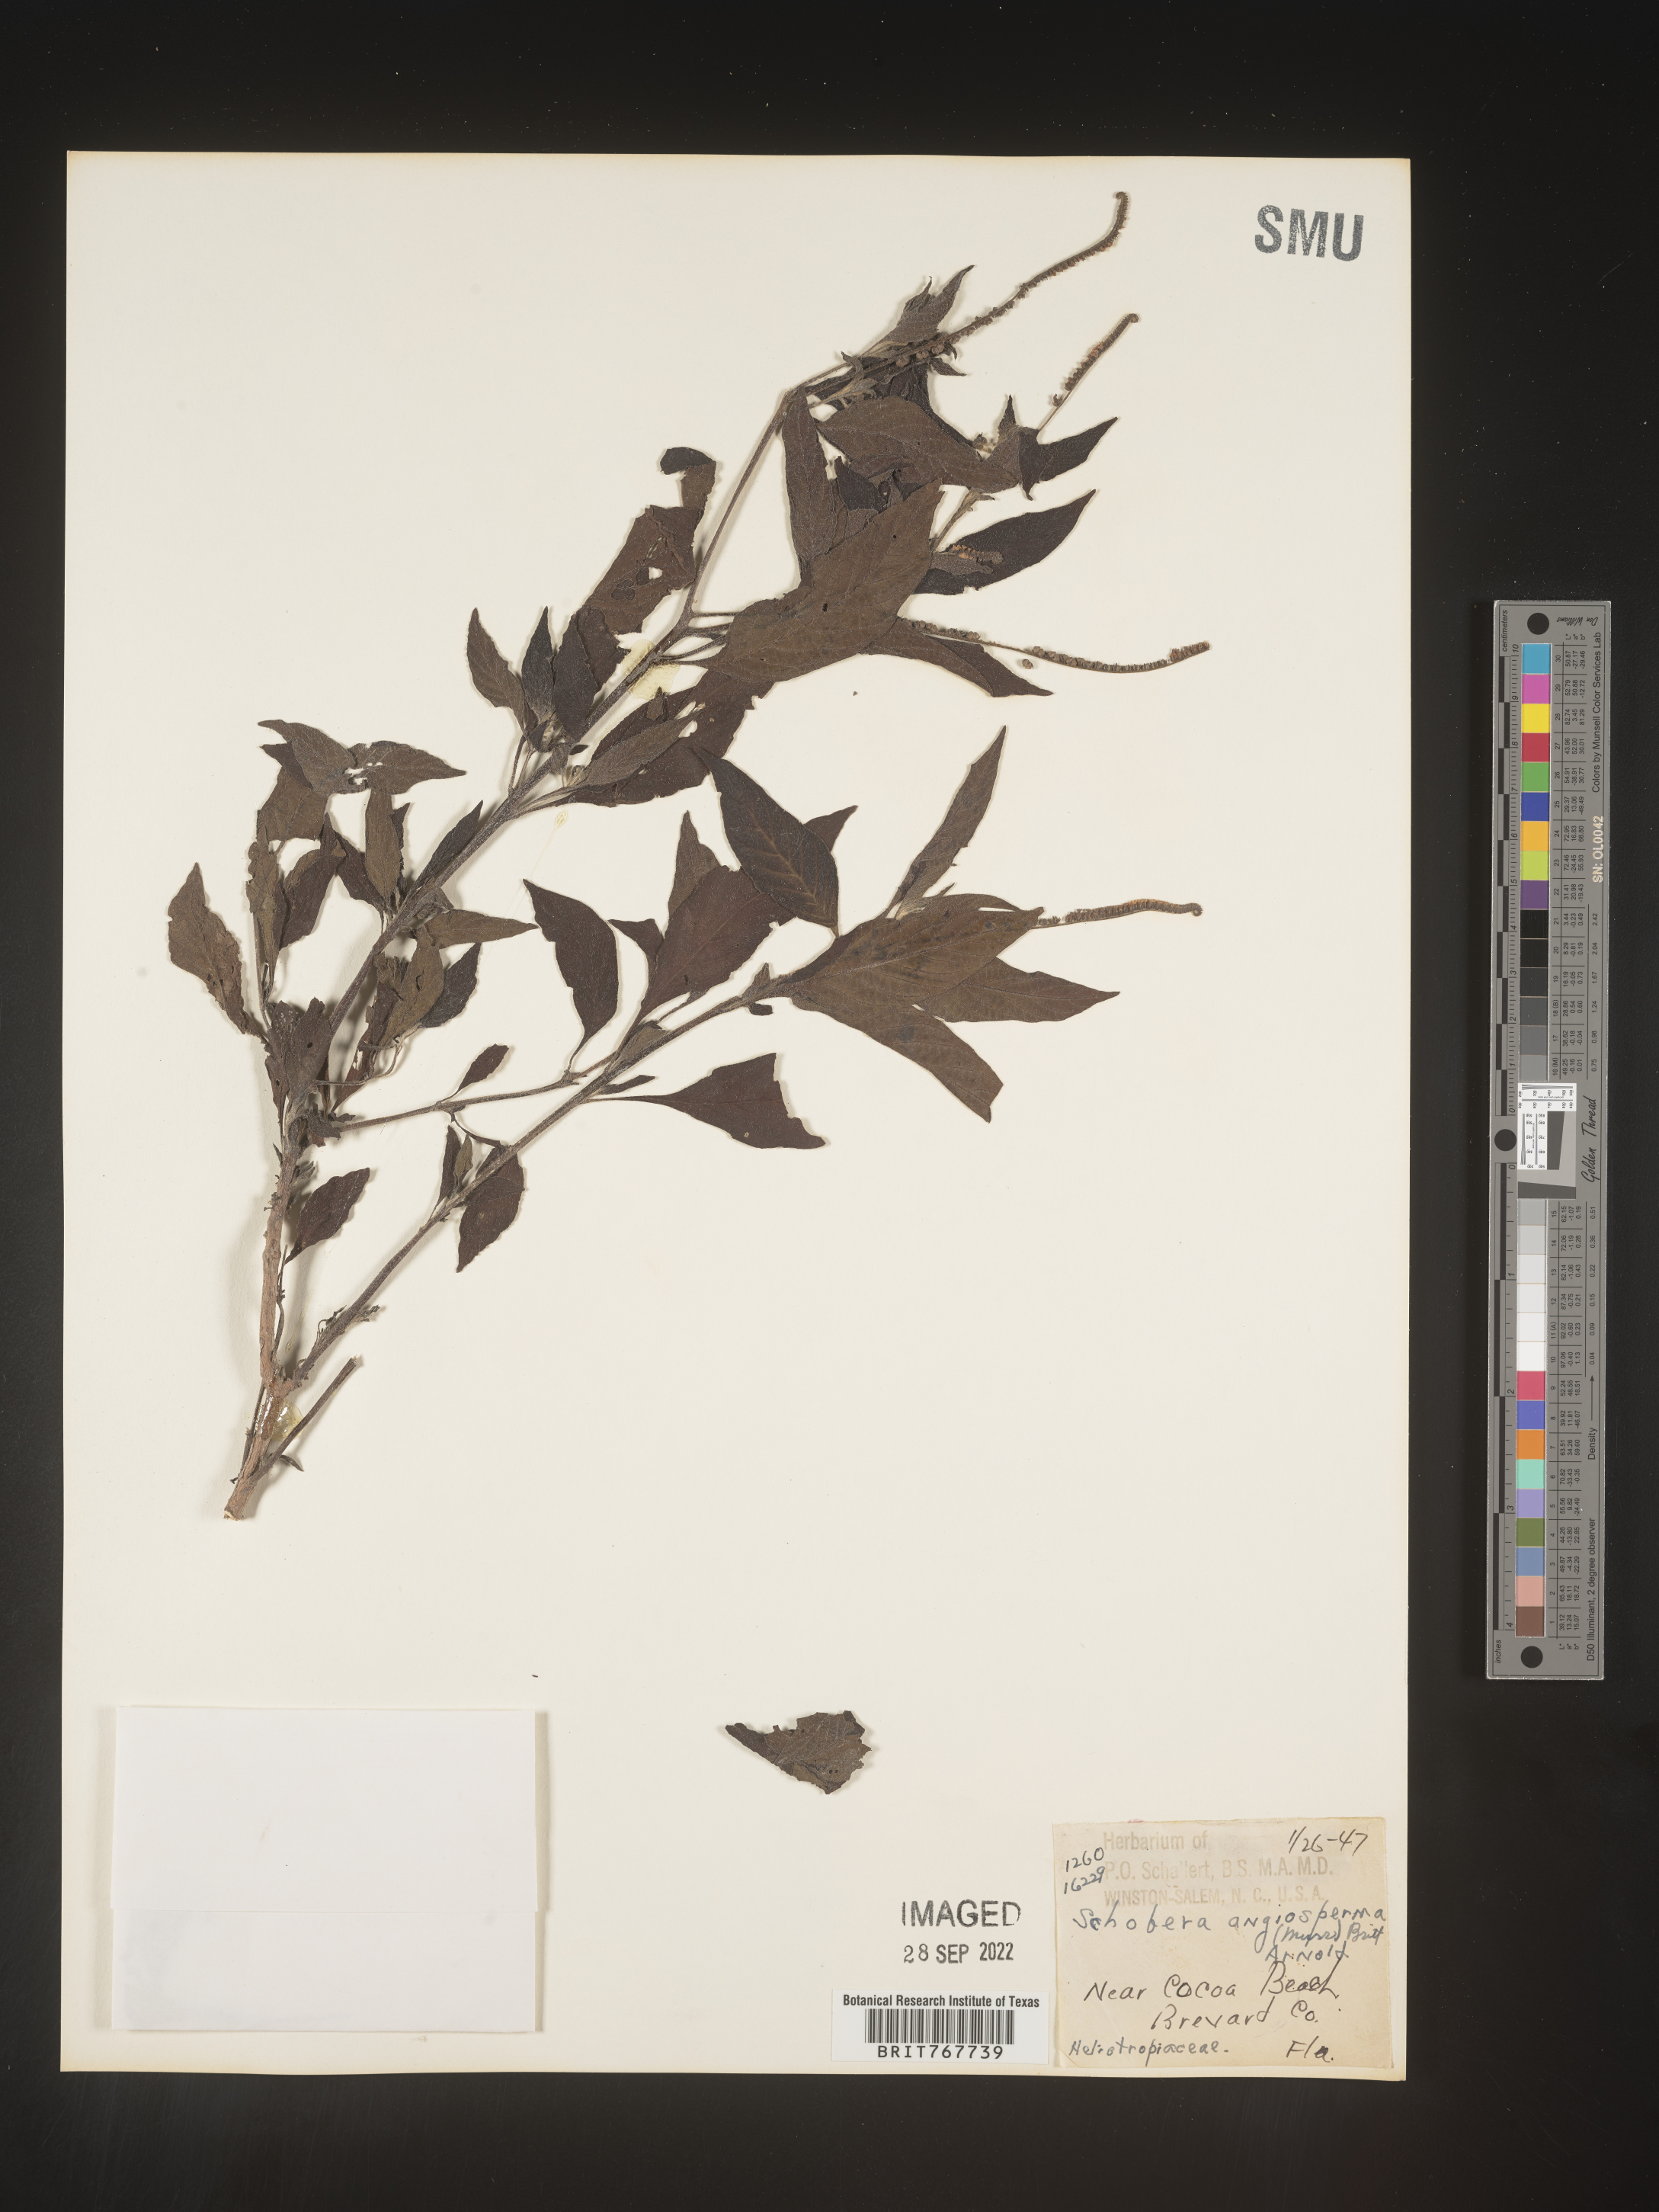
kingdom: Plantae
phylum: Tracheophyta
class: Magnoliopsida
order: Boraginales
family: Heliotropiaceae
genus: Heliotropium
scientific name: Heliotropium
